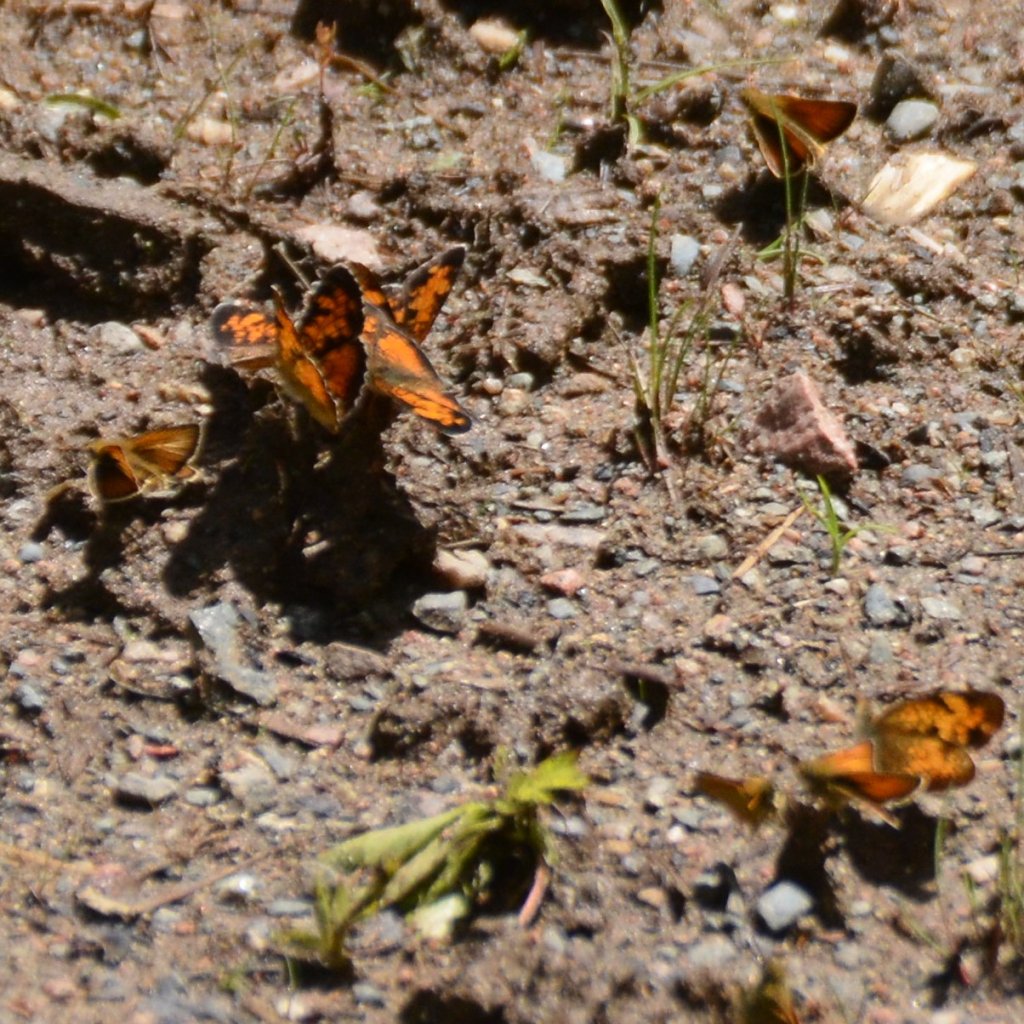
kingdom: Animalia
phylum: Arthropoda
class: Insecta
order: Lepidoptera
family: Nymphalidae
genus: Phyciodes
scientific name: Phyciodes tharos
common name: Northern Crescent
